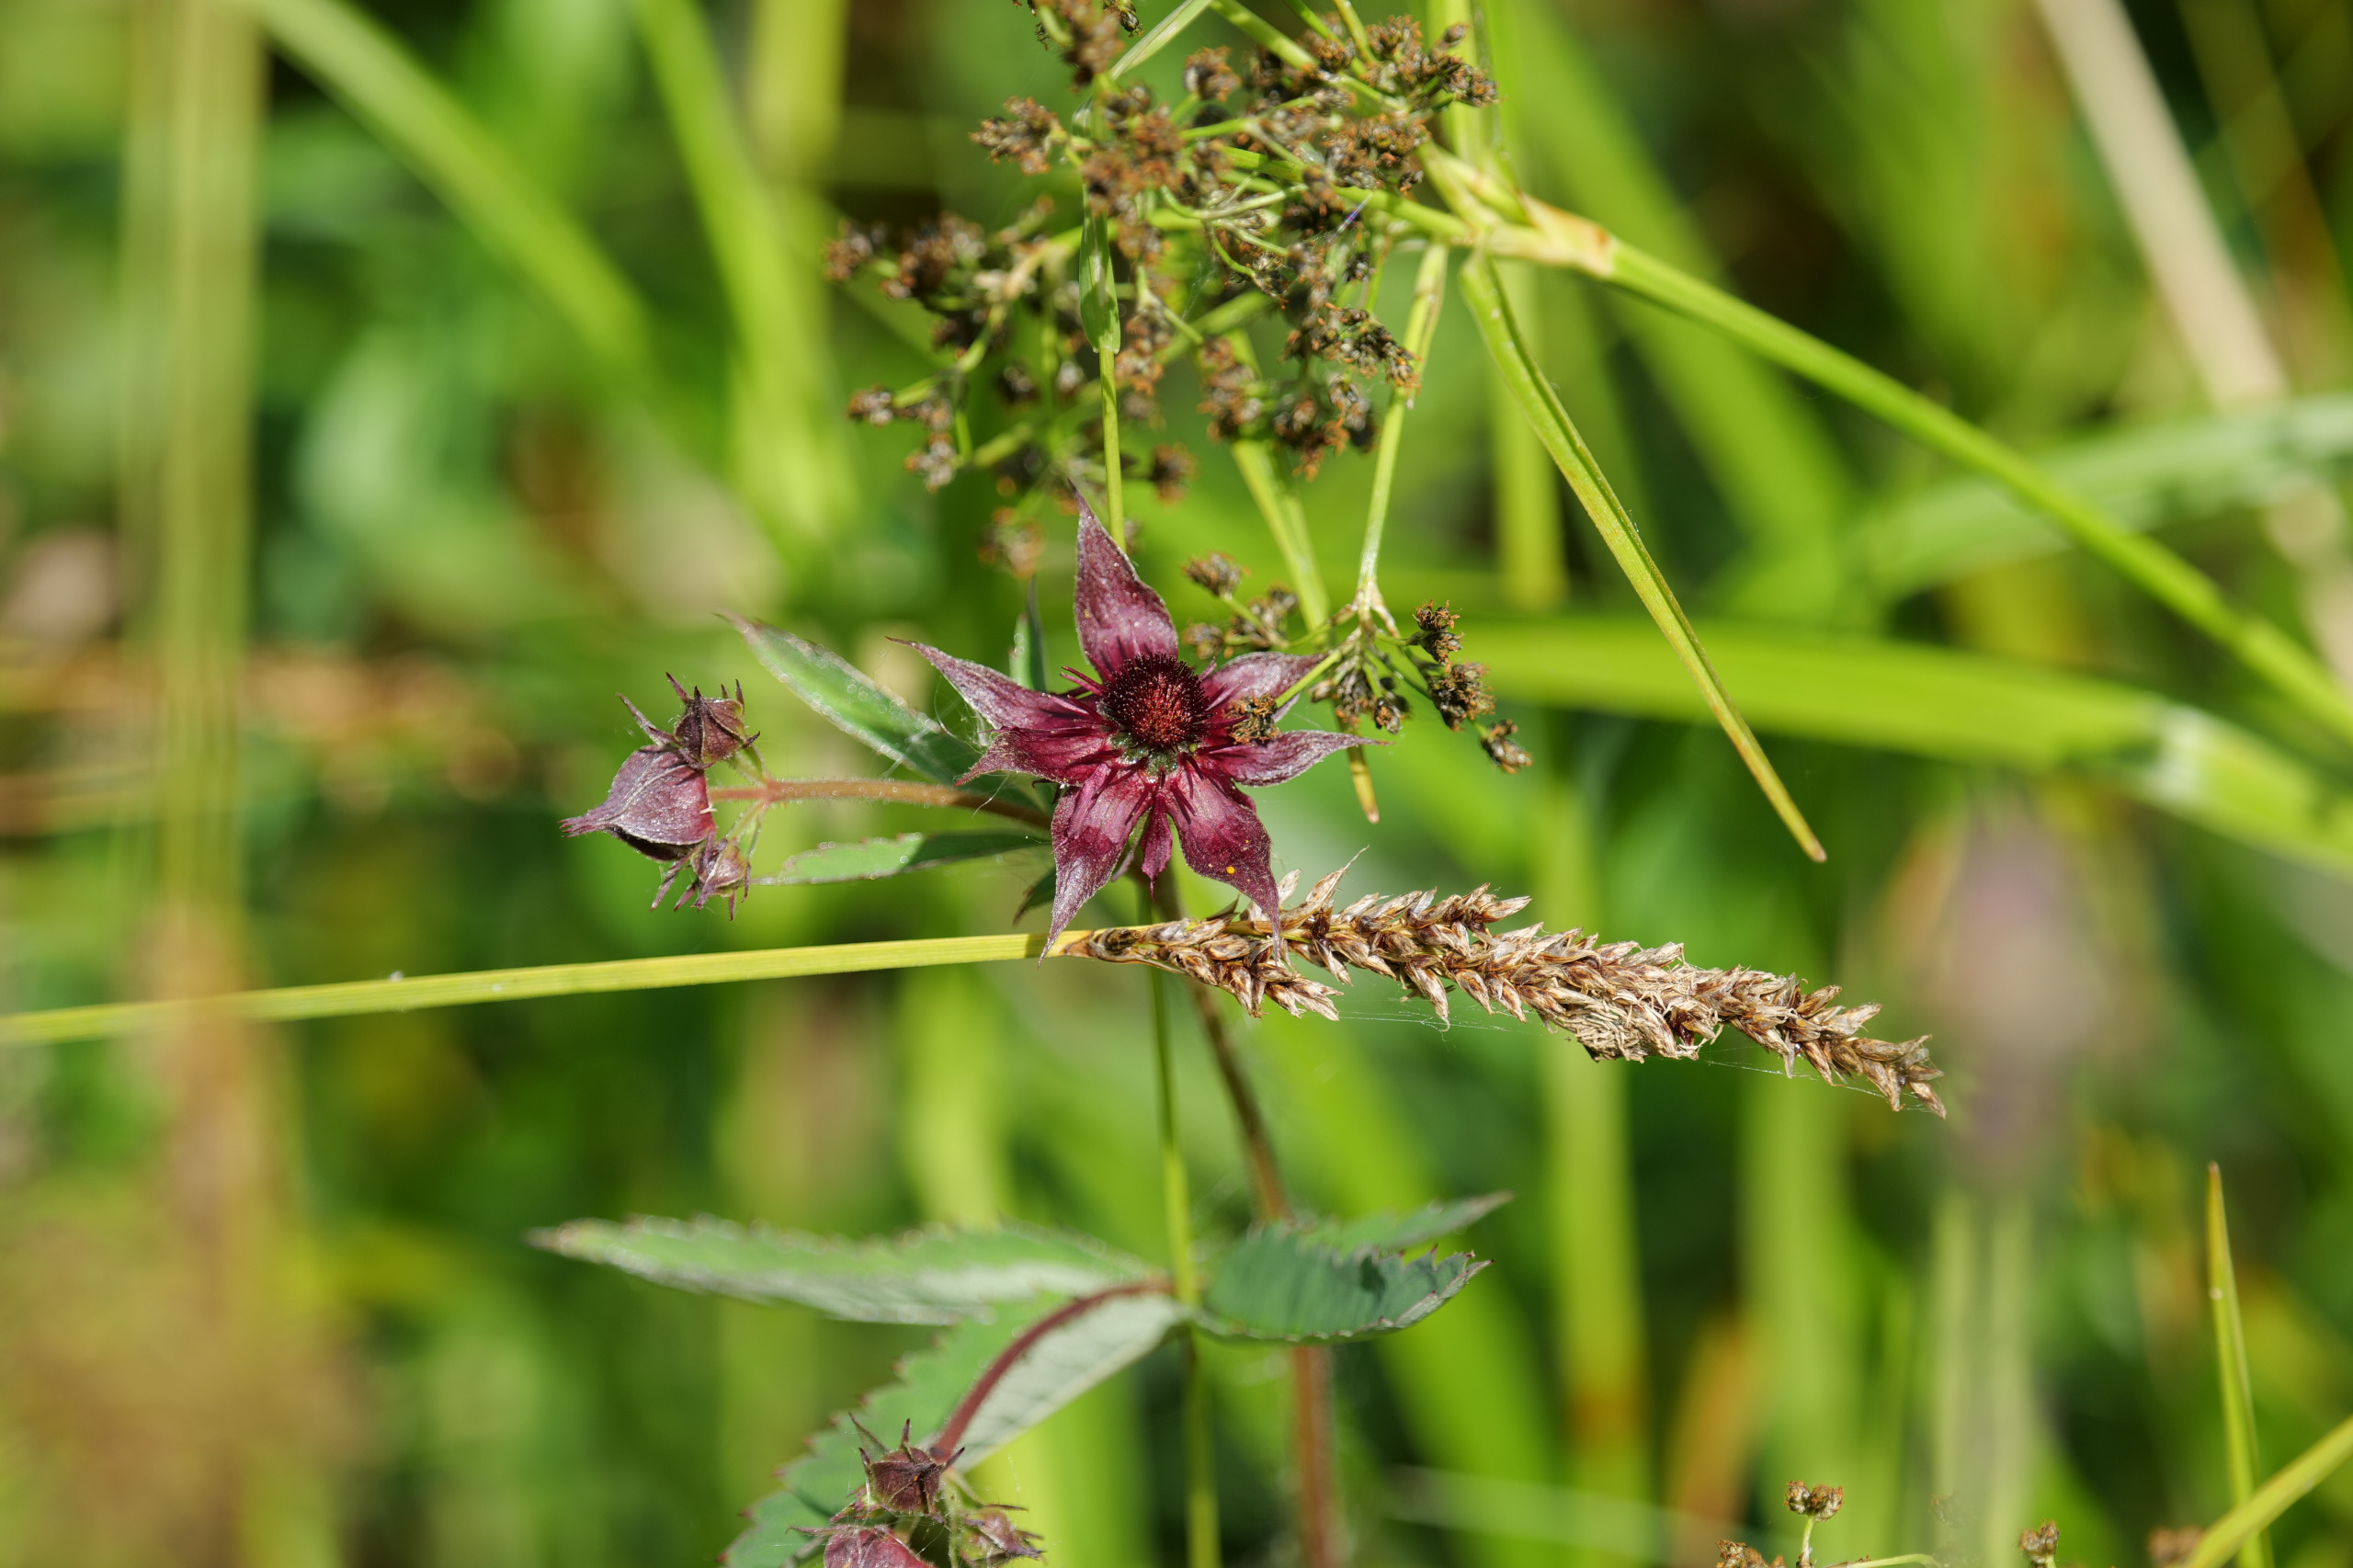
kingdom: Plantae
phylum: Tracheophyta
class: Magnoliopsida
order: Rosales
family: Rosaceae
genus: Comarum
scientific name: Comarum palustre
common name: Kragefod
